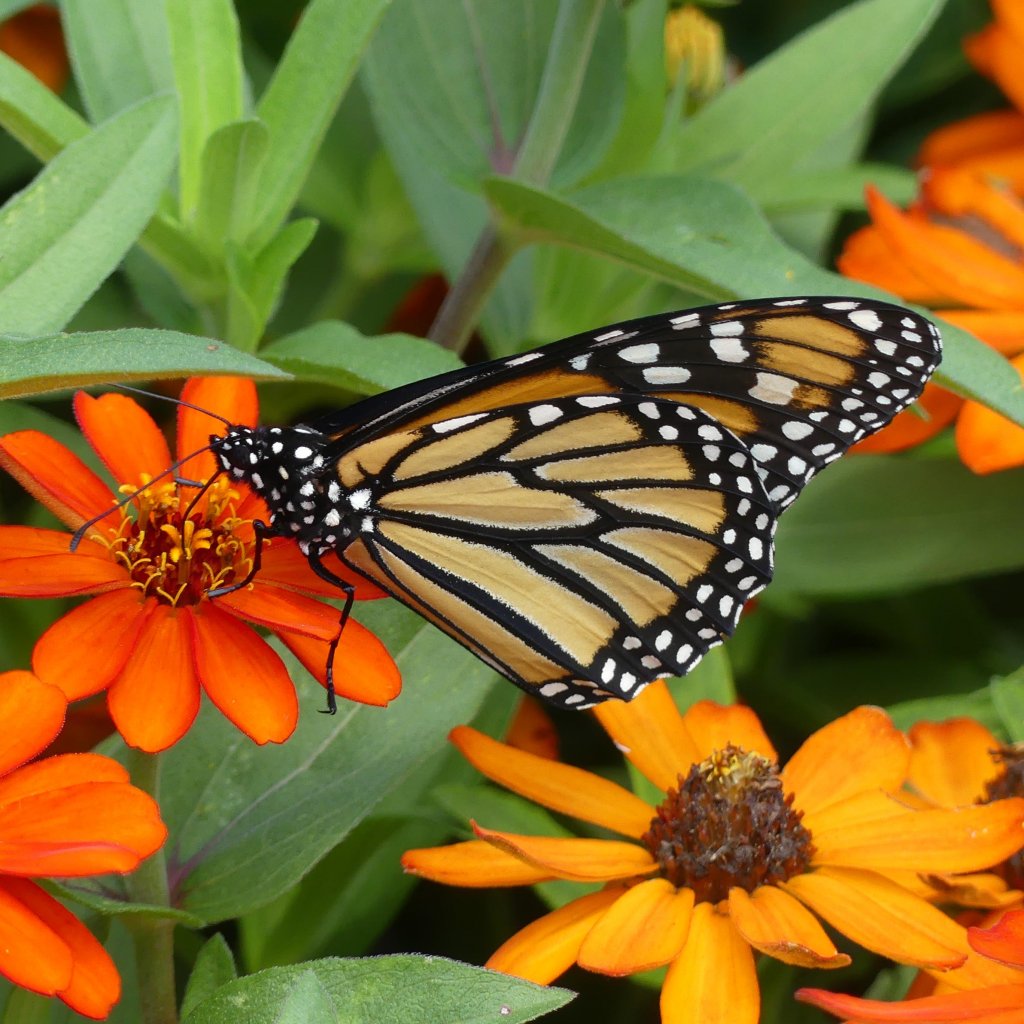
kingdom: Animalia
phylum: Arthropoda
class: Insecta
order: Lepidoptera
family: Nymphalidae
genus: Danaus
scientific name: Danaus plexippus
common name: Monarch
